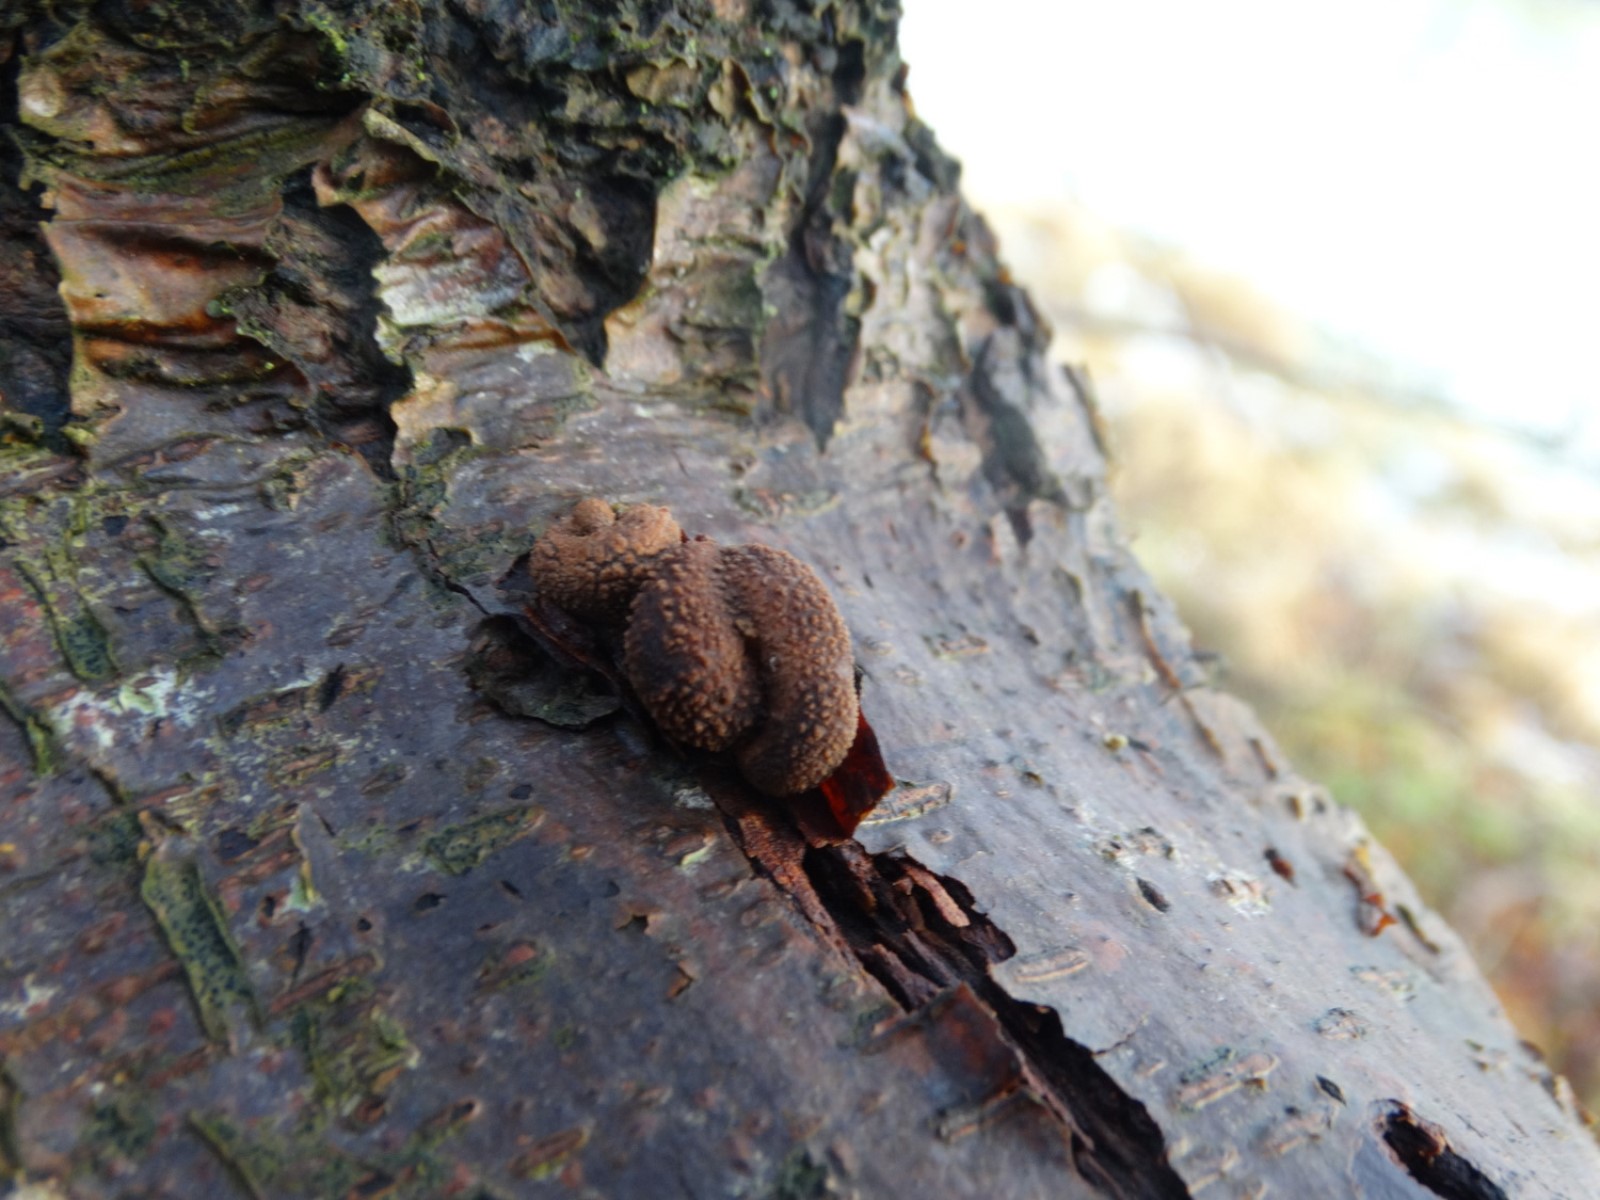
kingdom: Fungi
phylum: Ascomycota
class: Leotiomycetes
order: Helotiales
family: Cenangiaceae
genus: Encoelia
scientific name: Encoelia furfuracea
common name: hassel-læderskive
